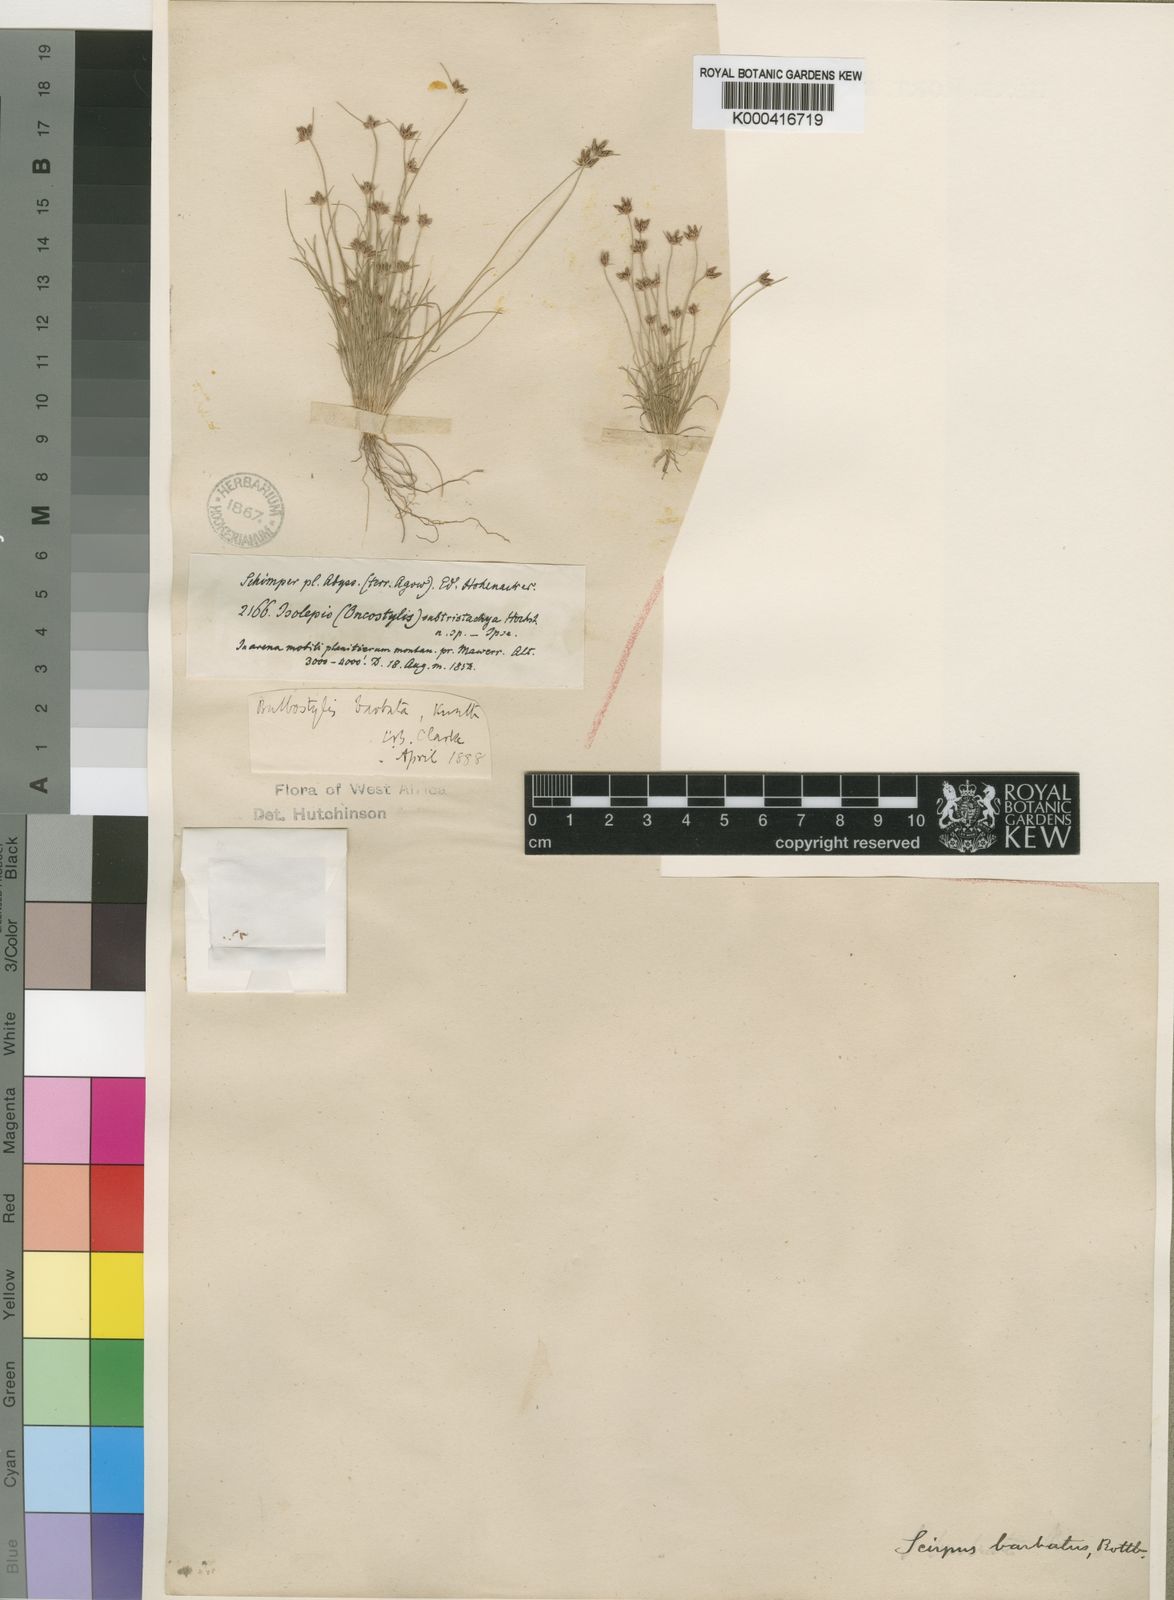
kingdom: Plantae
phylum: Tracheophyta
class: Liliopsida
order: Poales
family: Cyperaceae
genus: Bulbostylis
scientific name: Bulbostylis
